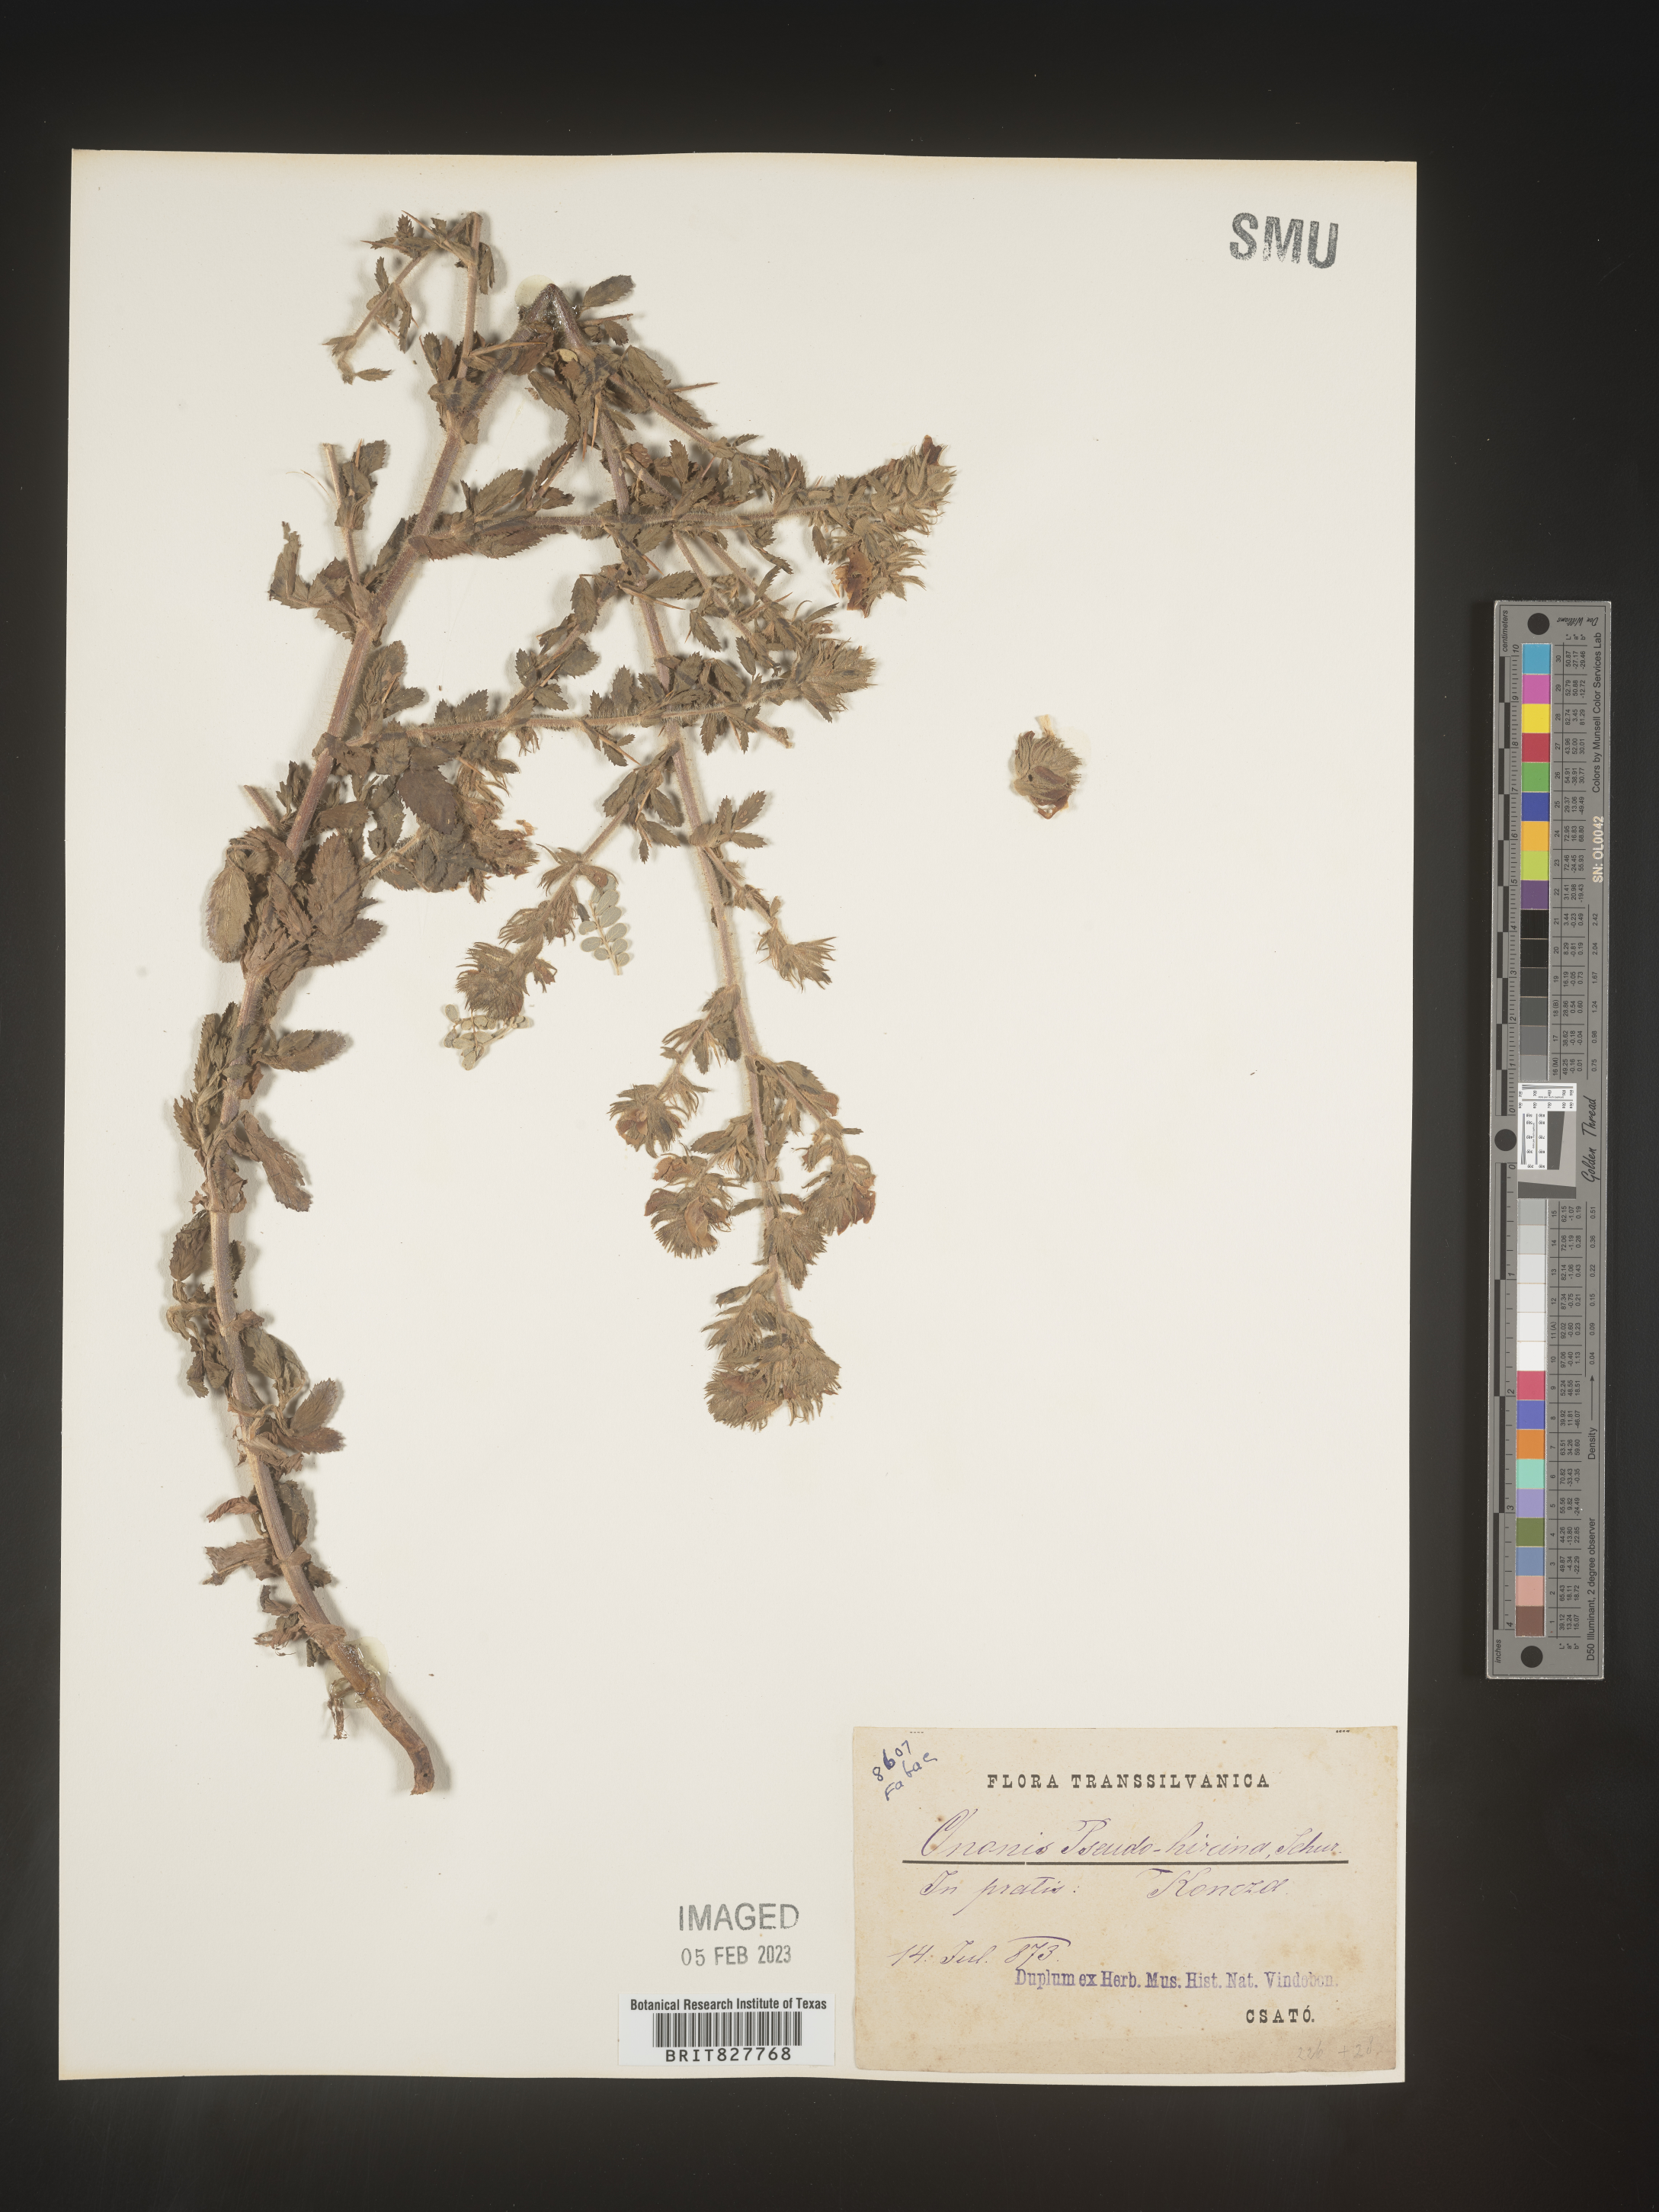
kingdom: Plantae
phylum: Tracheophyta
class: Magnoliopsida
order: Fabales
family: Fabaceae
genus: Ononis
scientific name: Ononis
